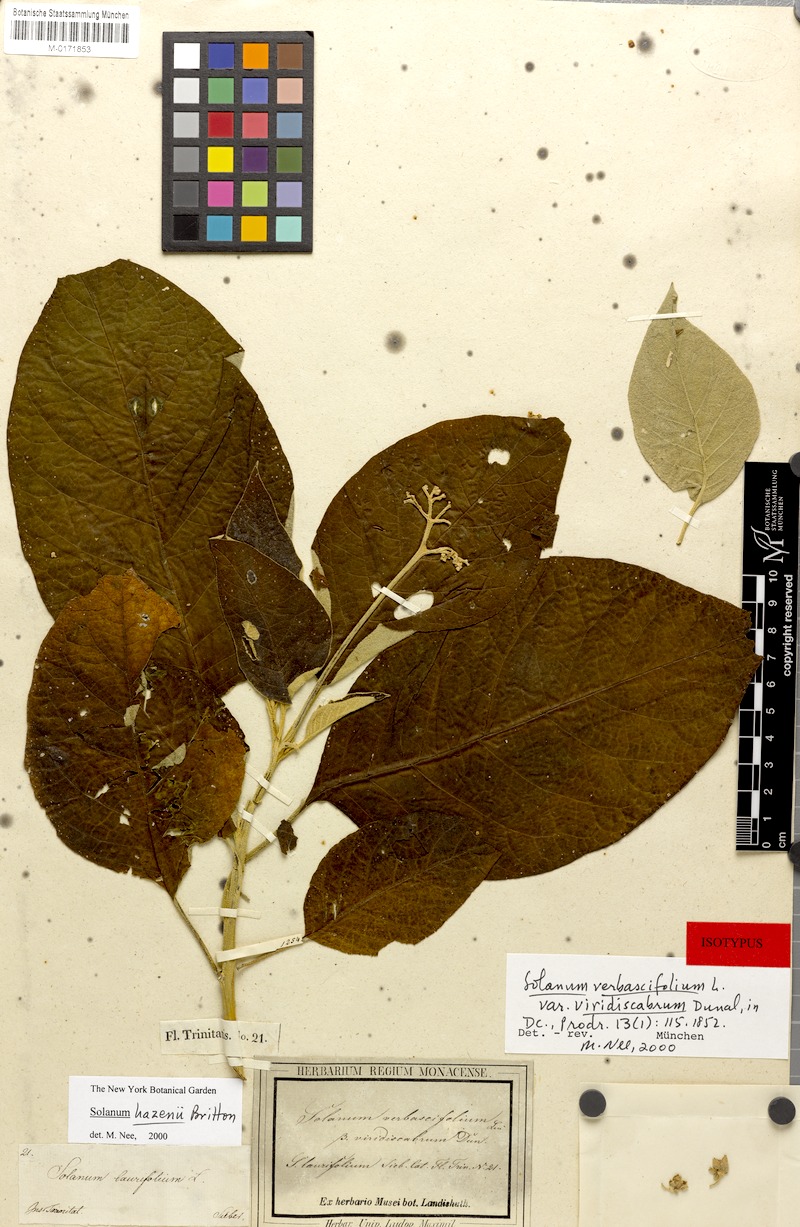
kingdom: Plantae
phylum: Tracheophyta
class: Magnoliopsida
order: Solanales
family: Solanaceae
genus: Solanum
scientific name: Solanum hazenii
